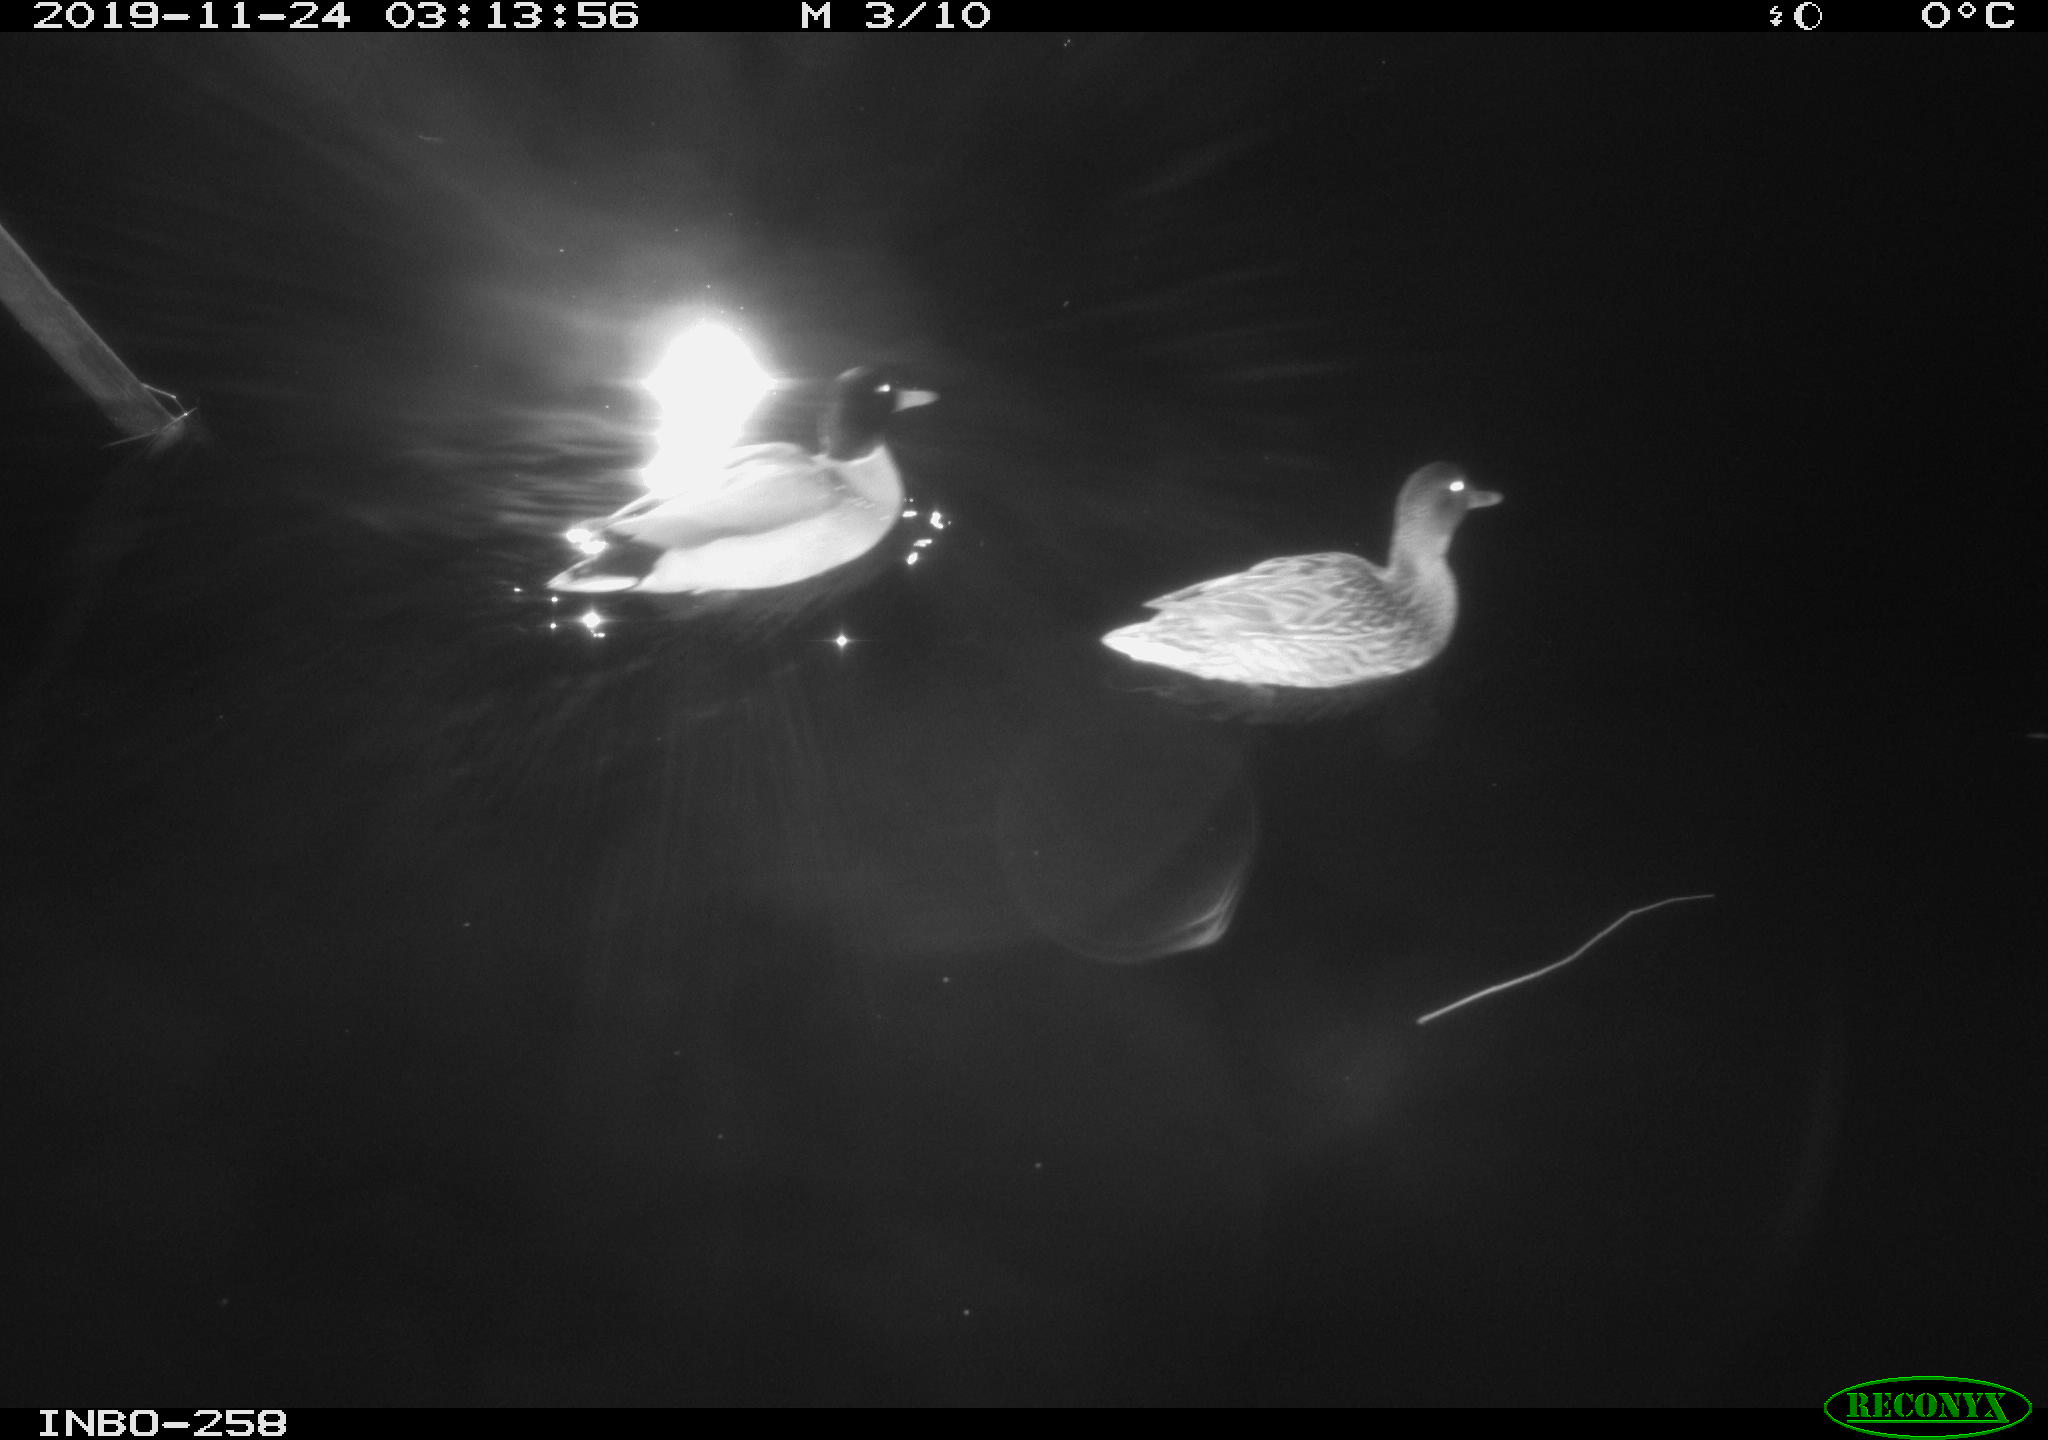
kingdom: Animalia
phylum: Chordata
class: Aves
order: Anseriformes
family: Anatidae
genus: Anas
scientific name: Anas platyrhynchos
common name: Mallard
